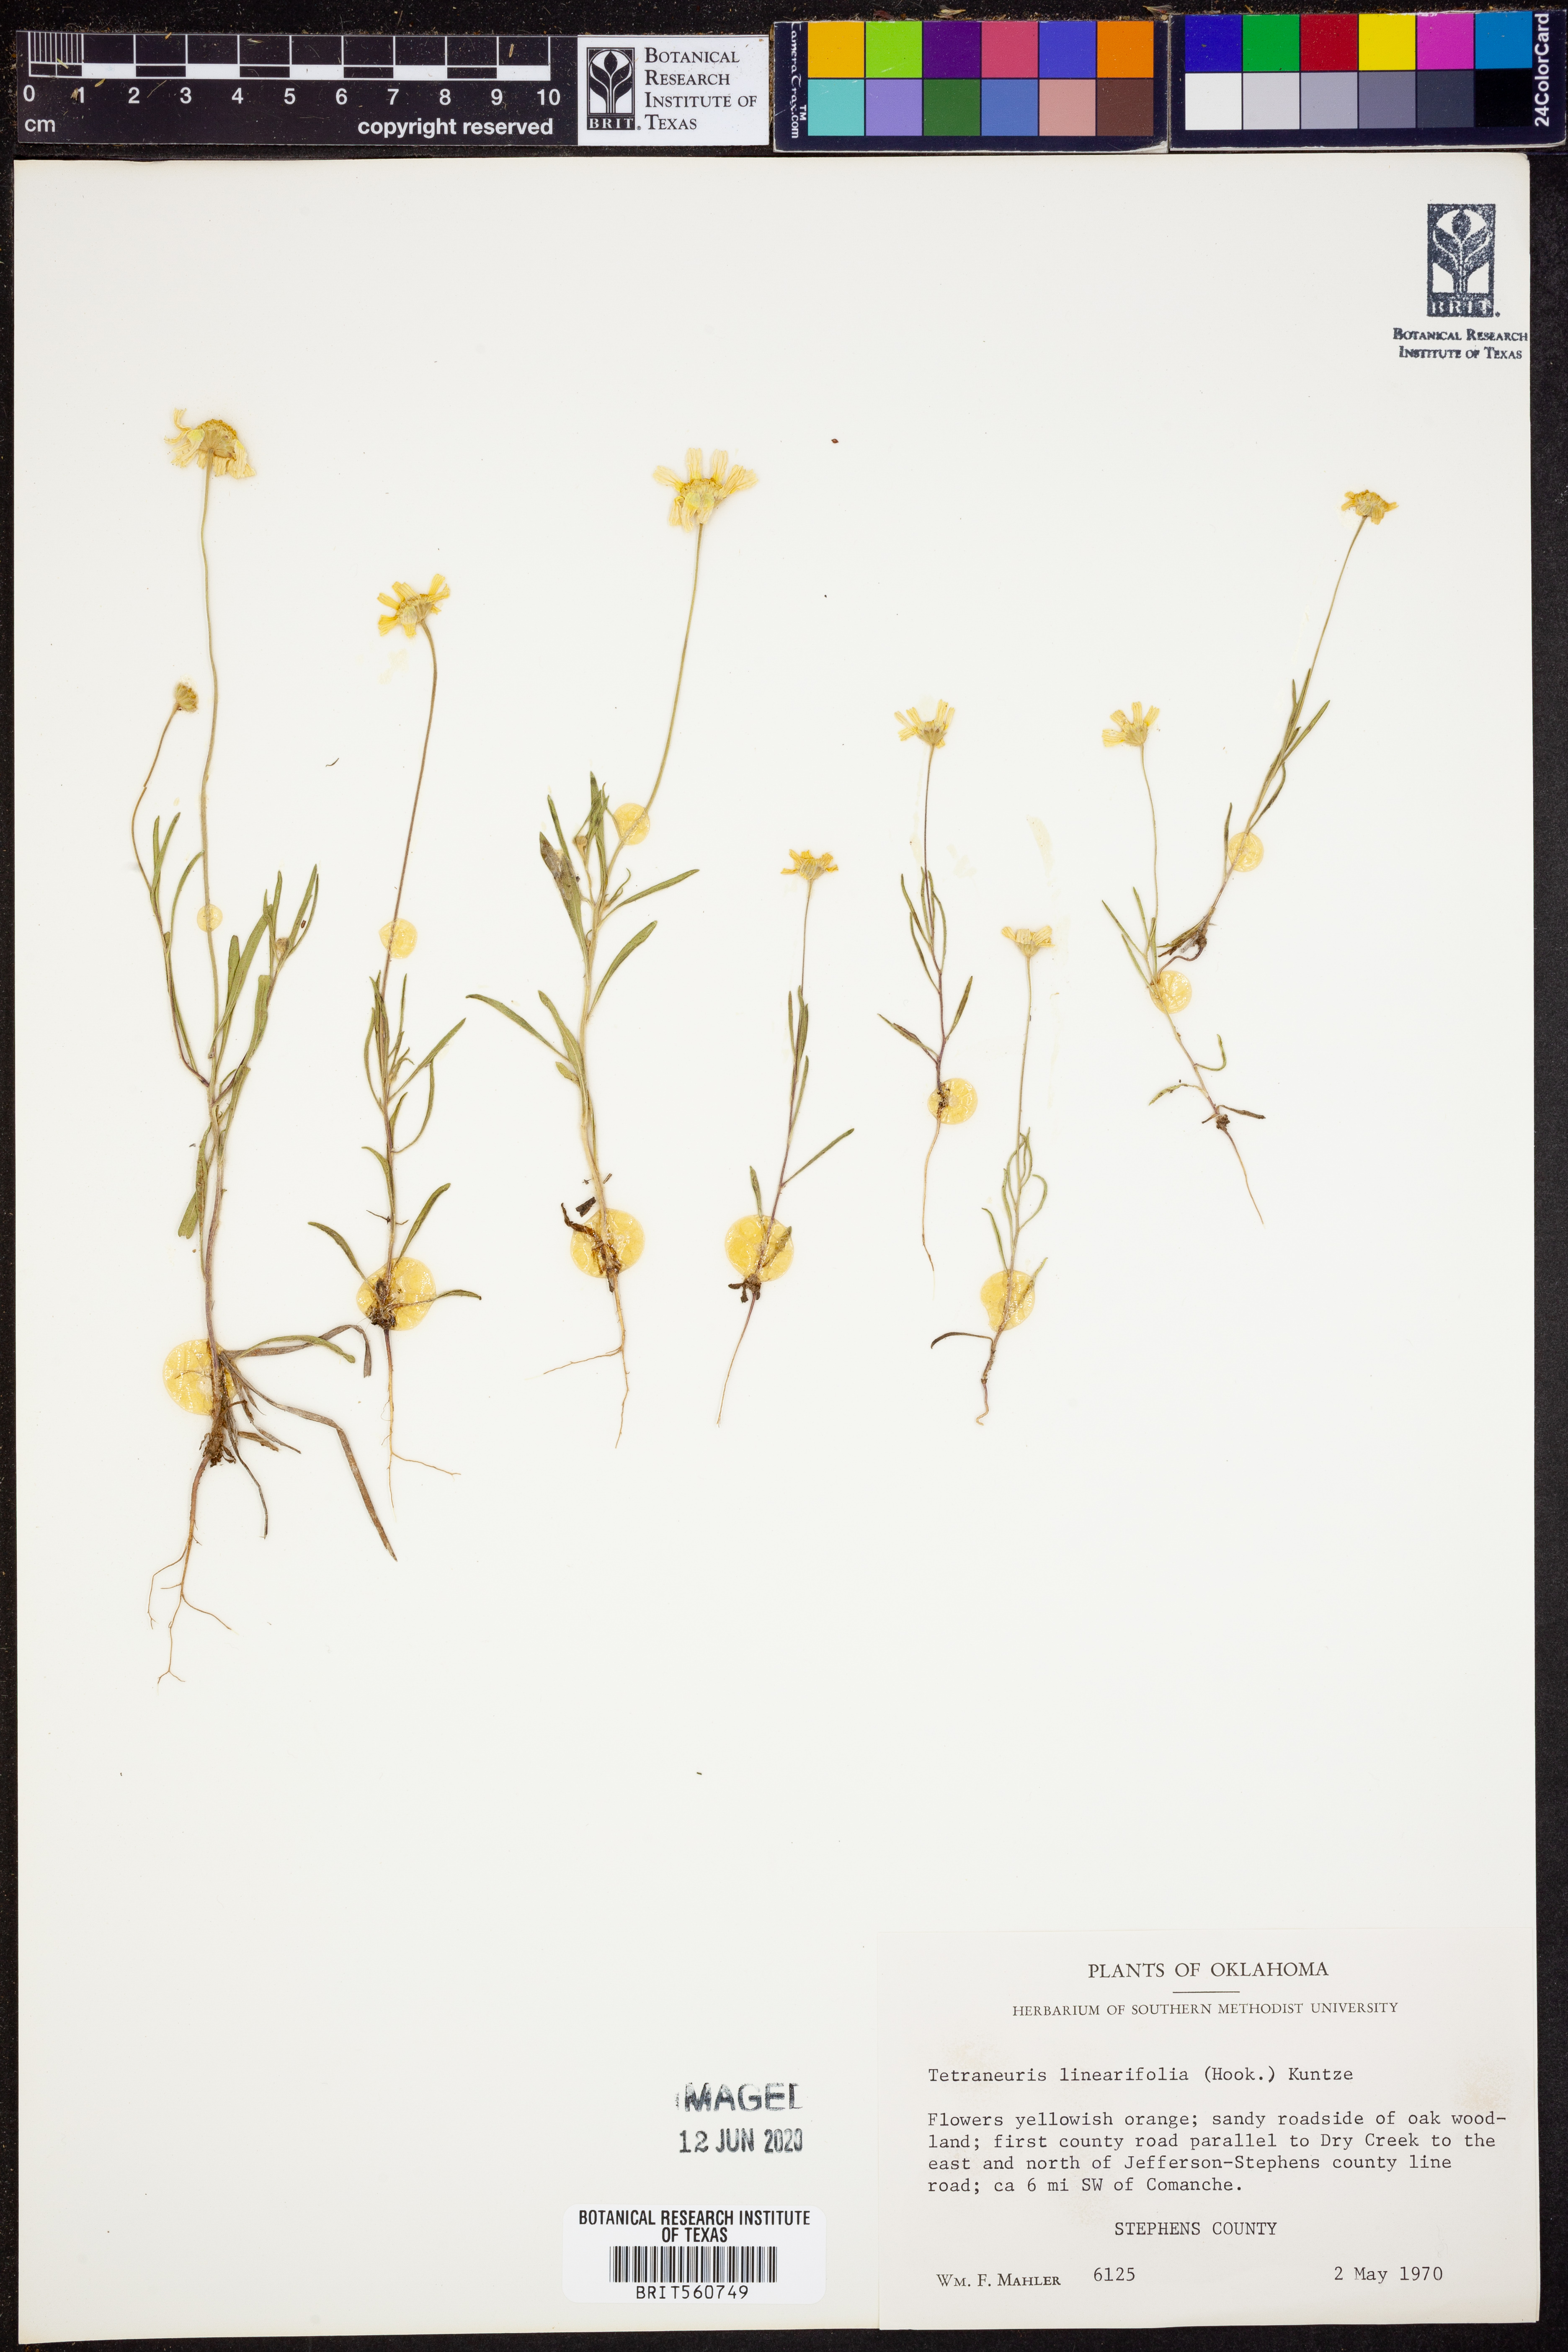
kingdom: Plantae
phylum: Tracheophyta
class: Magnoliopsida
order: Asterales
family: Asteraceae
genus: Tetraneuris
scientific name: Tetraneuris linearifolia
